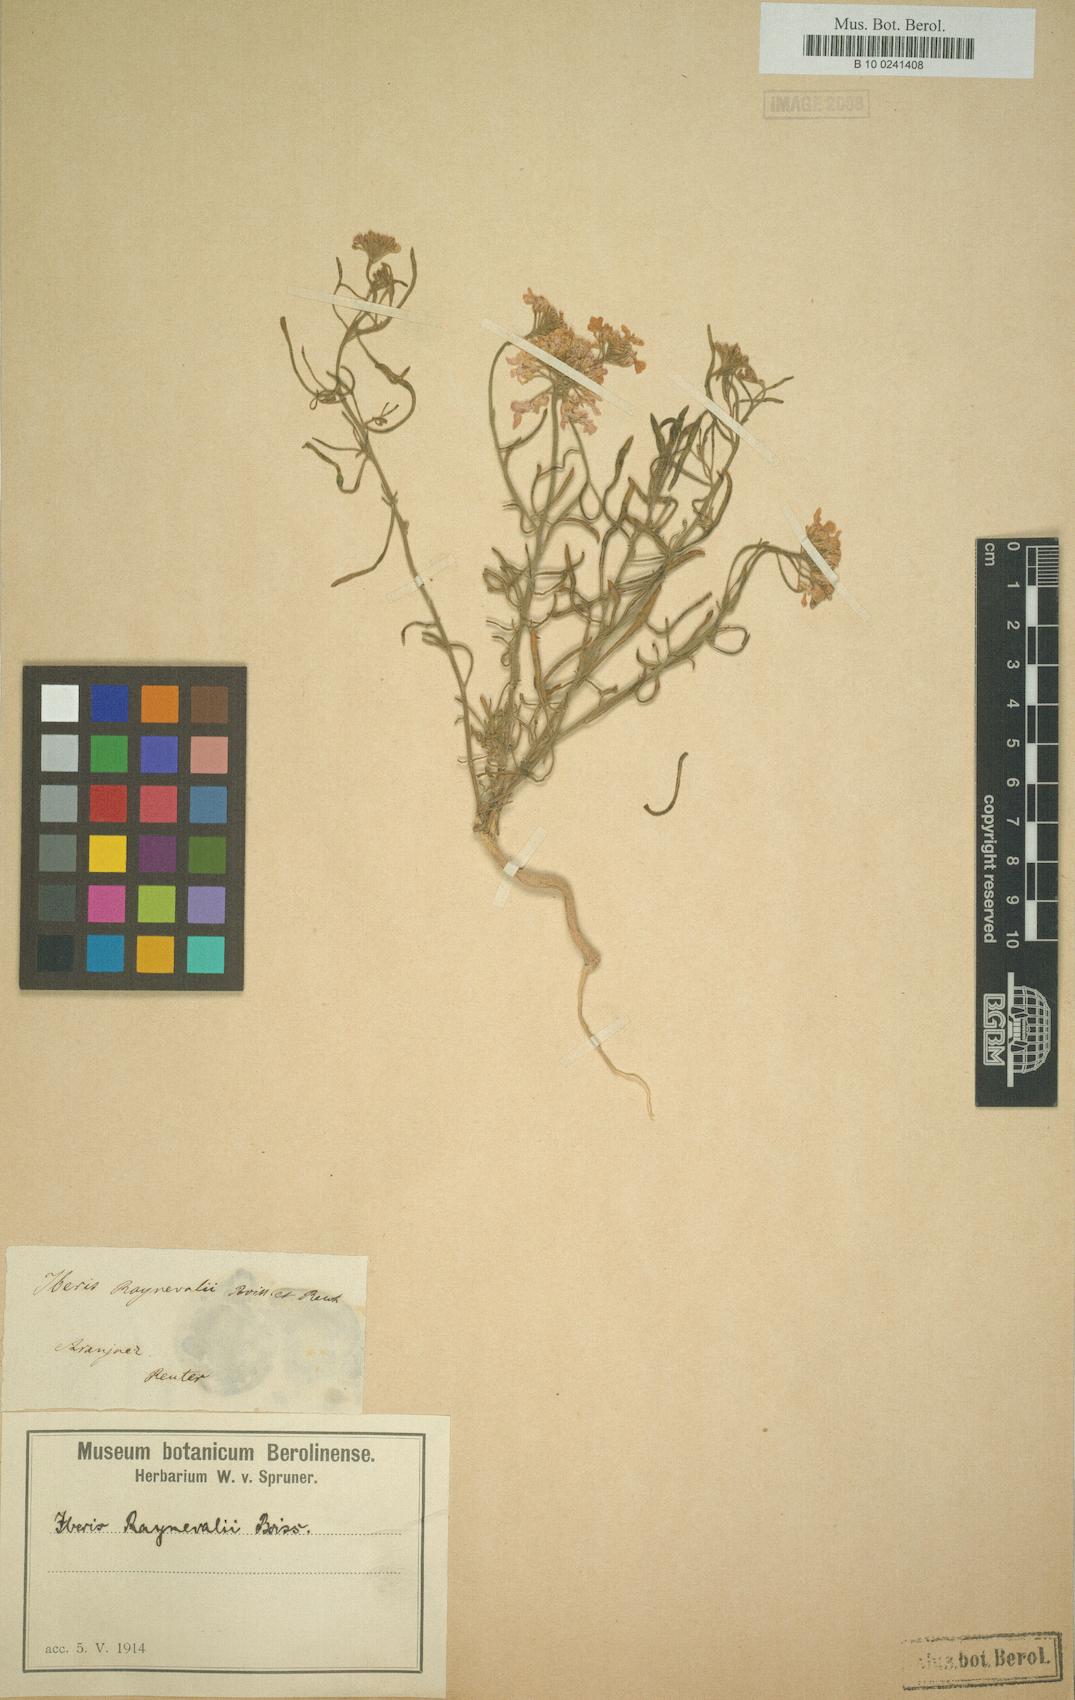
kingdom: Plantae
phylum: Tracheophyta
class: Magnoliopsida
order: Brassicales
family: Brassicaceae
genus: Iberis
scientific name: Iberis contracta
